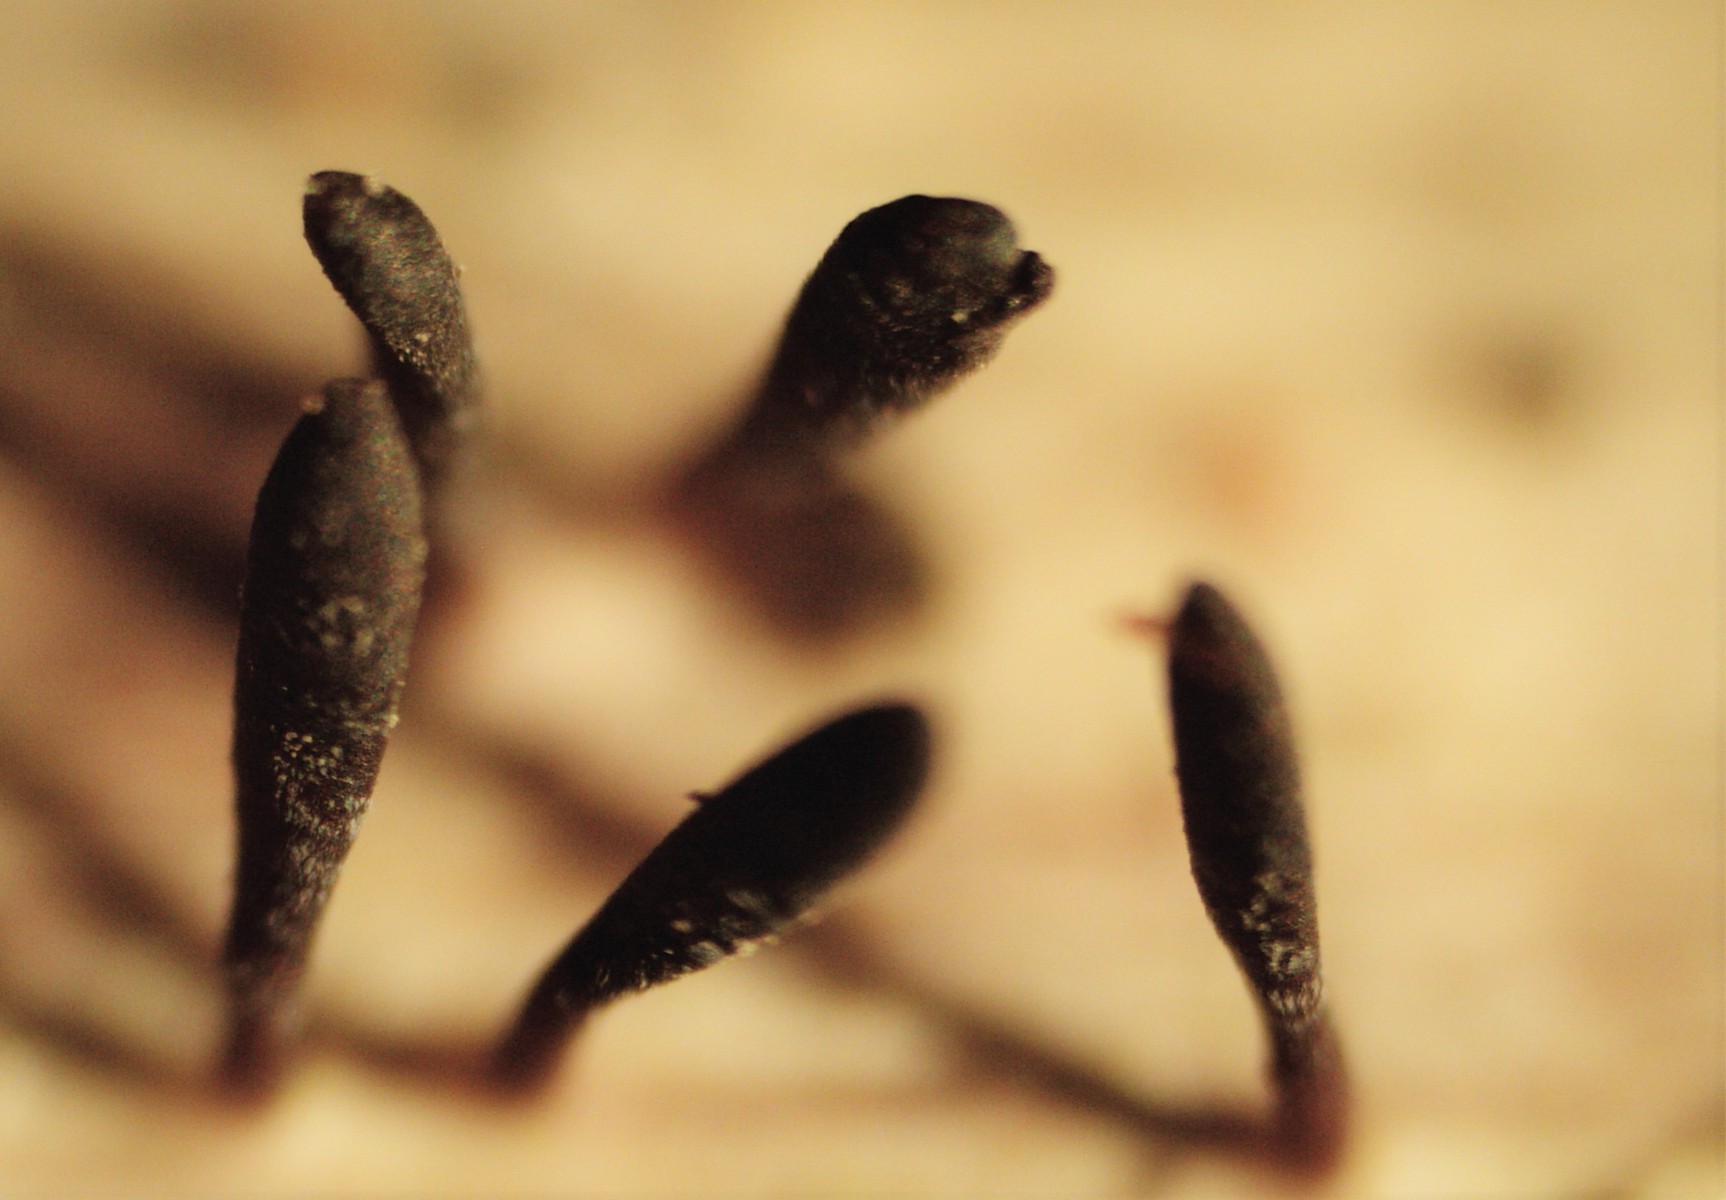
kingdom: Fungi
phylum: Ascomycota
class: Dothideomycetes
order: Acrospermales
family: Acrospermaceae
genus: Acrospermum
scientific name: Acrospermum compressum
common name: nælde-stængeltunge
